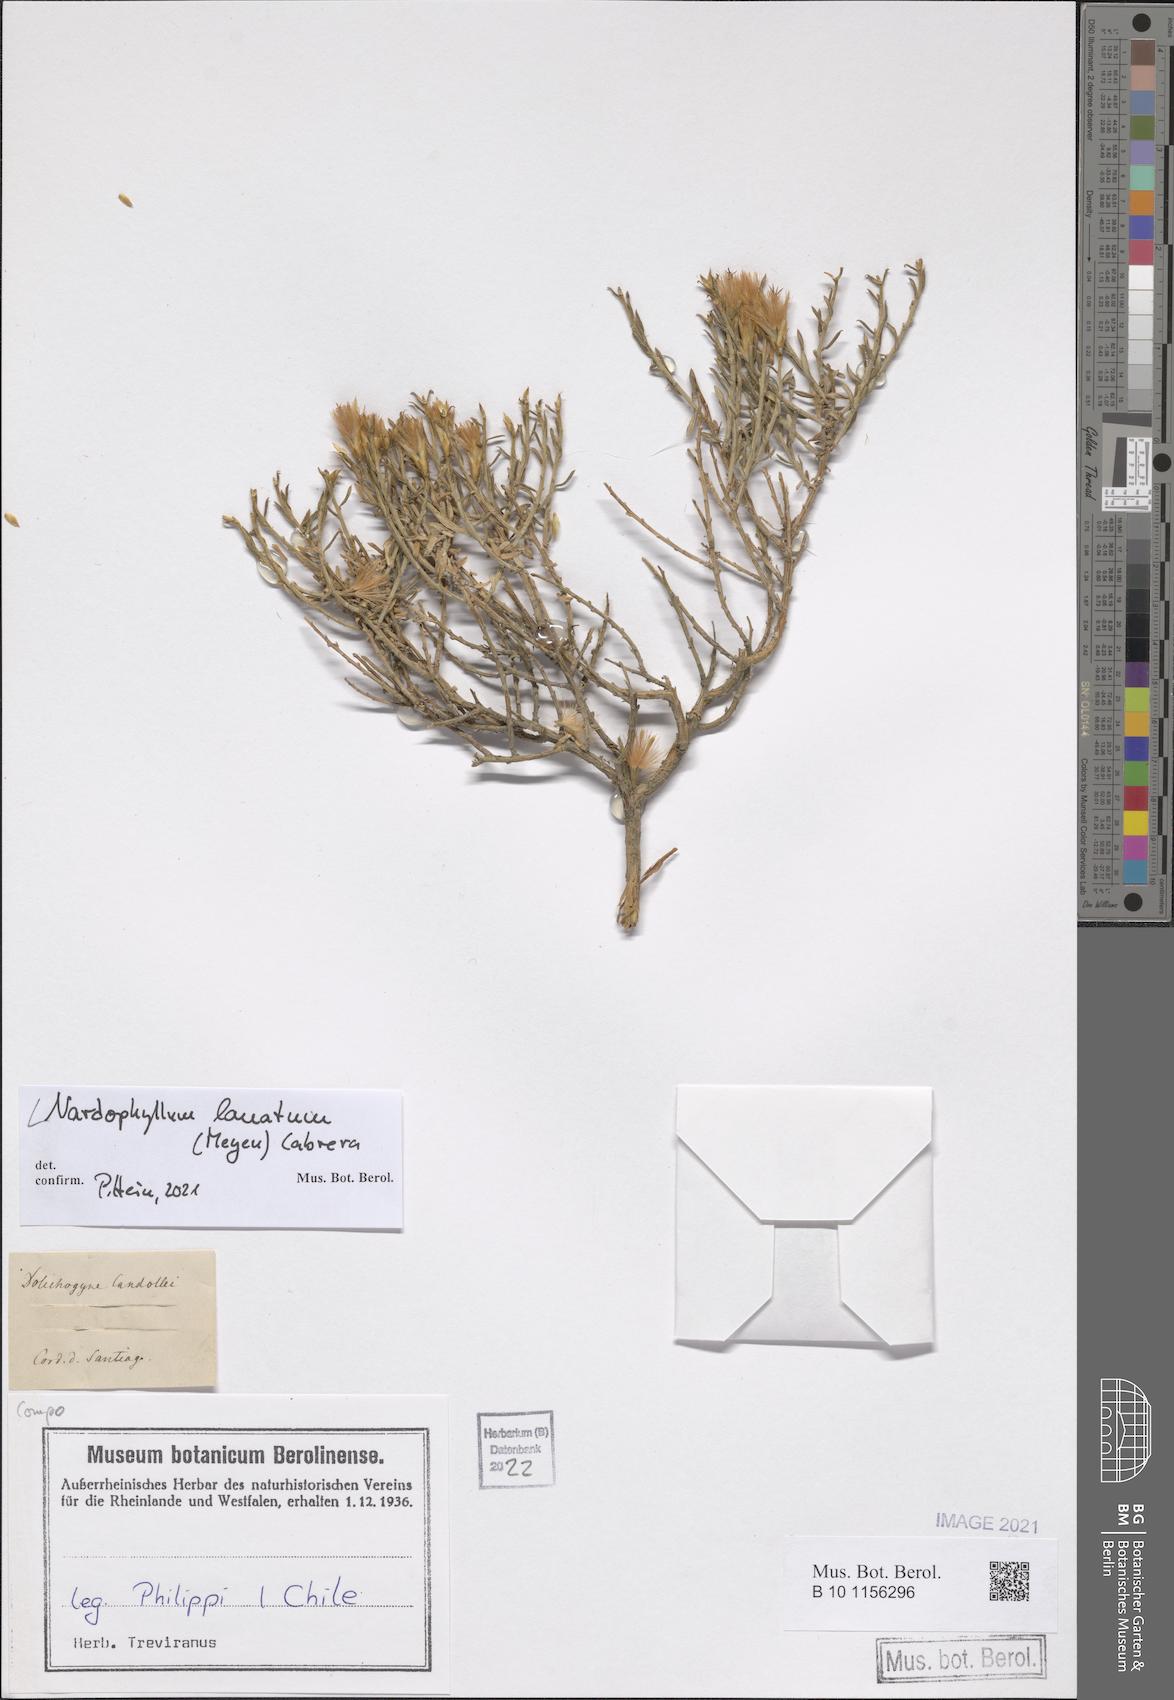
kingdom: Plantae
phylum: Tracheophyta
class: Magnoliopsida
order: Asterales
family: Asteraceae
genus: Nardophyllum
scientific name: Nardophyllum lanatum
